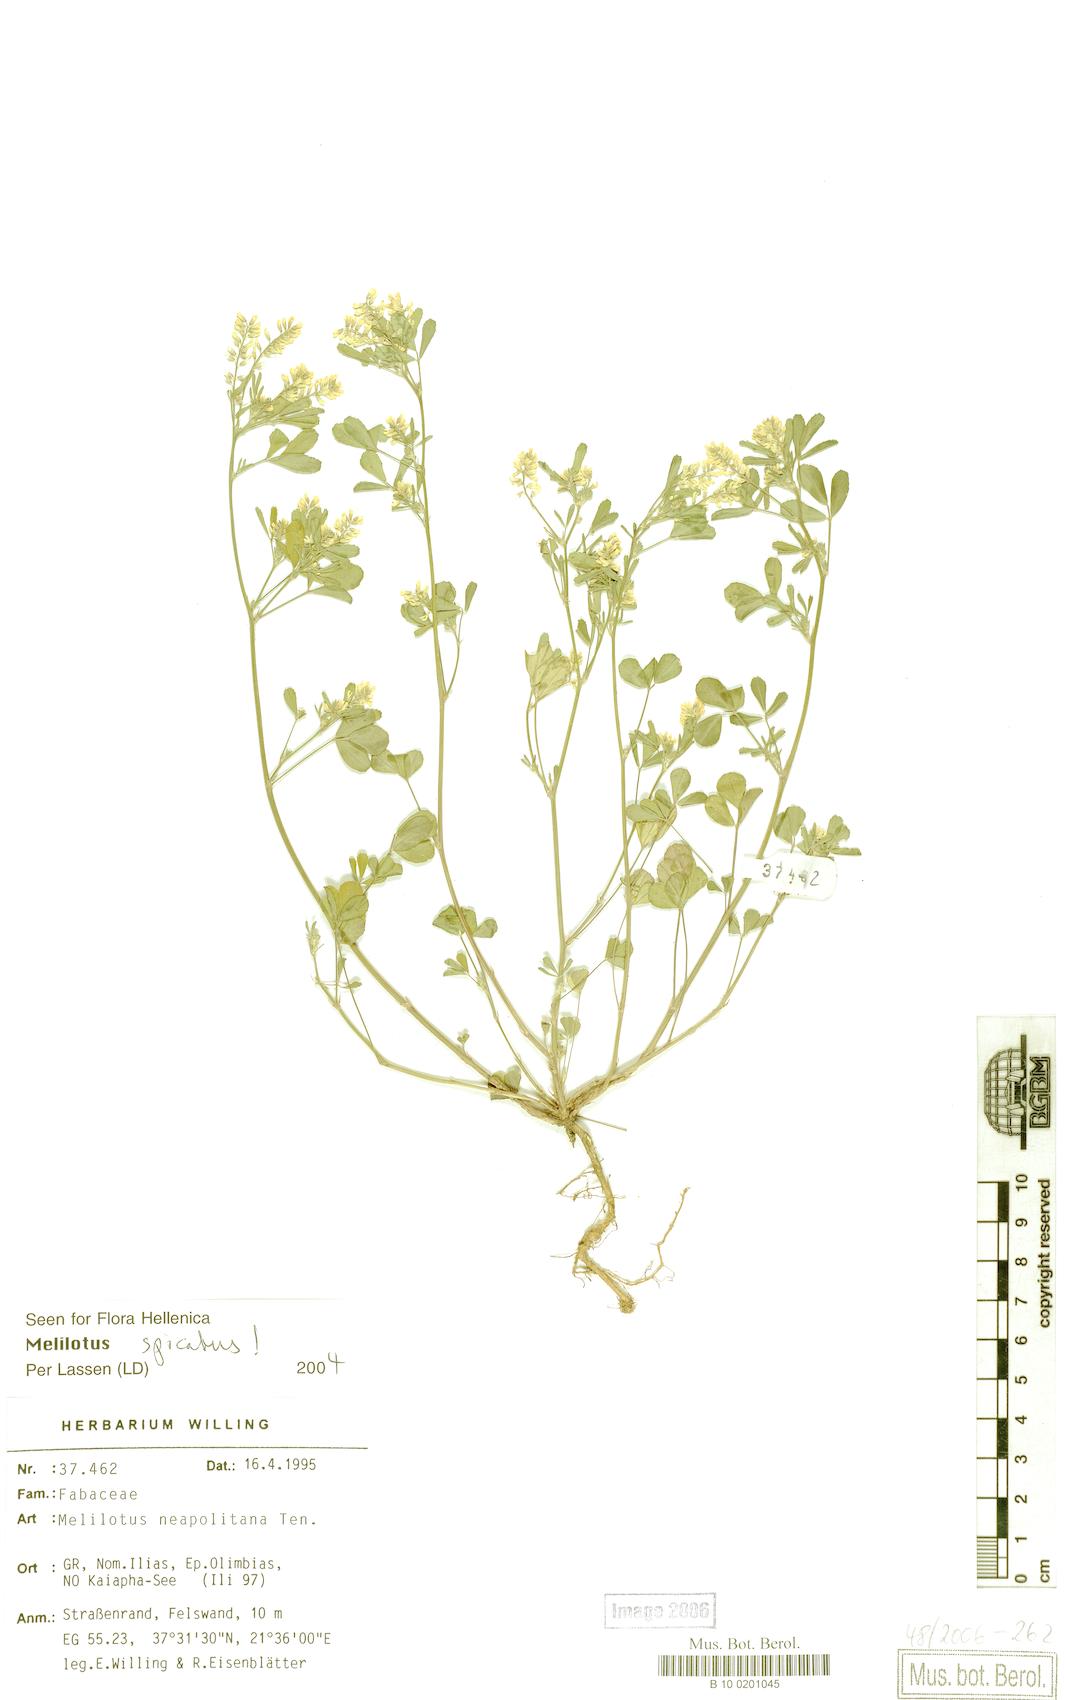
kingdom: Plantae
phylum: Tracheophyta
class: Magnoliopsida
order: Fabales
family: Fabaceae
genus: Melilotus
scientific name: Melilotus neapolitanus
